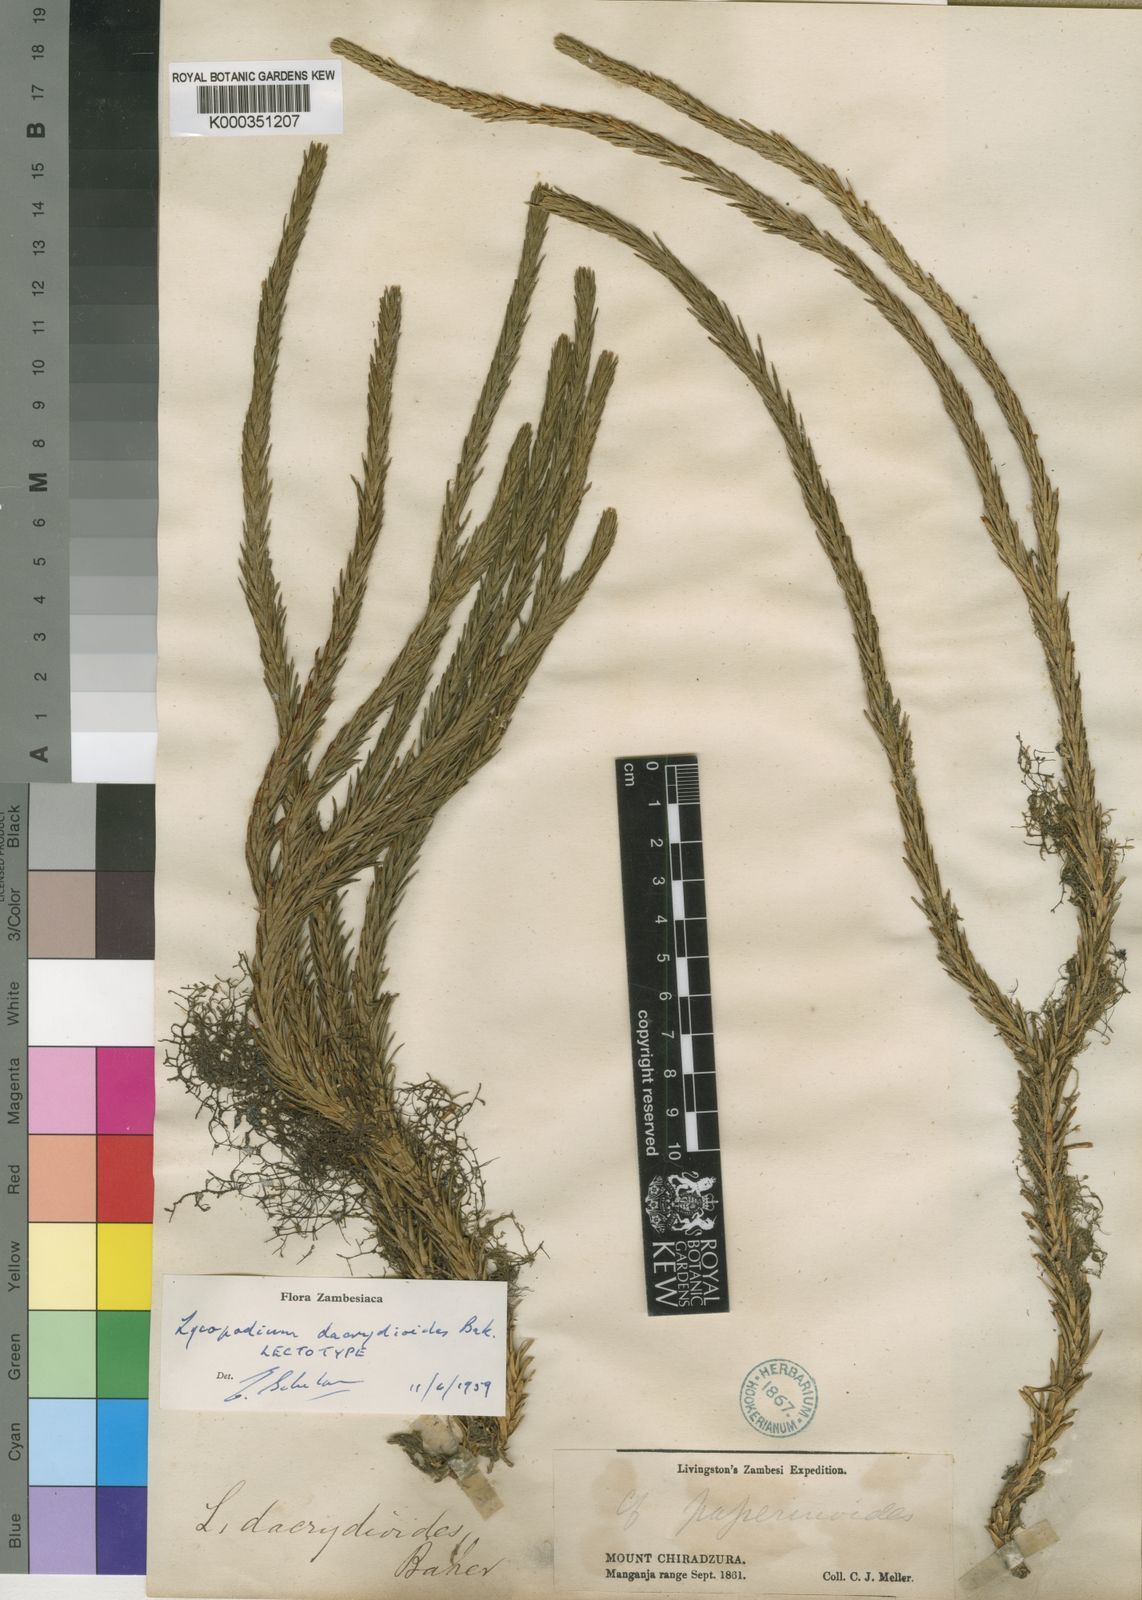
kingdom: Plantae
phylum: Tracheophyta
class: Lycopodiopsida
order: Lycopodiales
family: Lycopodiaceae
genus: Lycopodium
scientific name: Lycopodium
